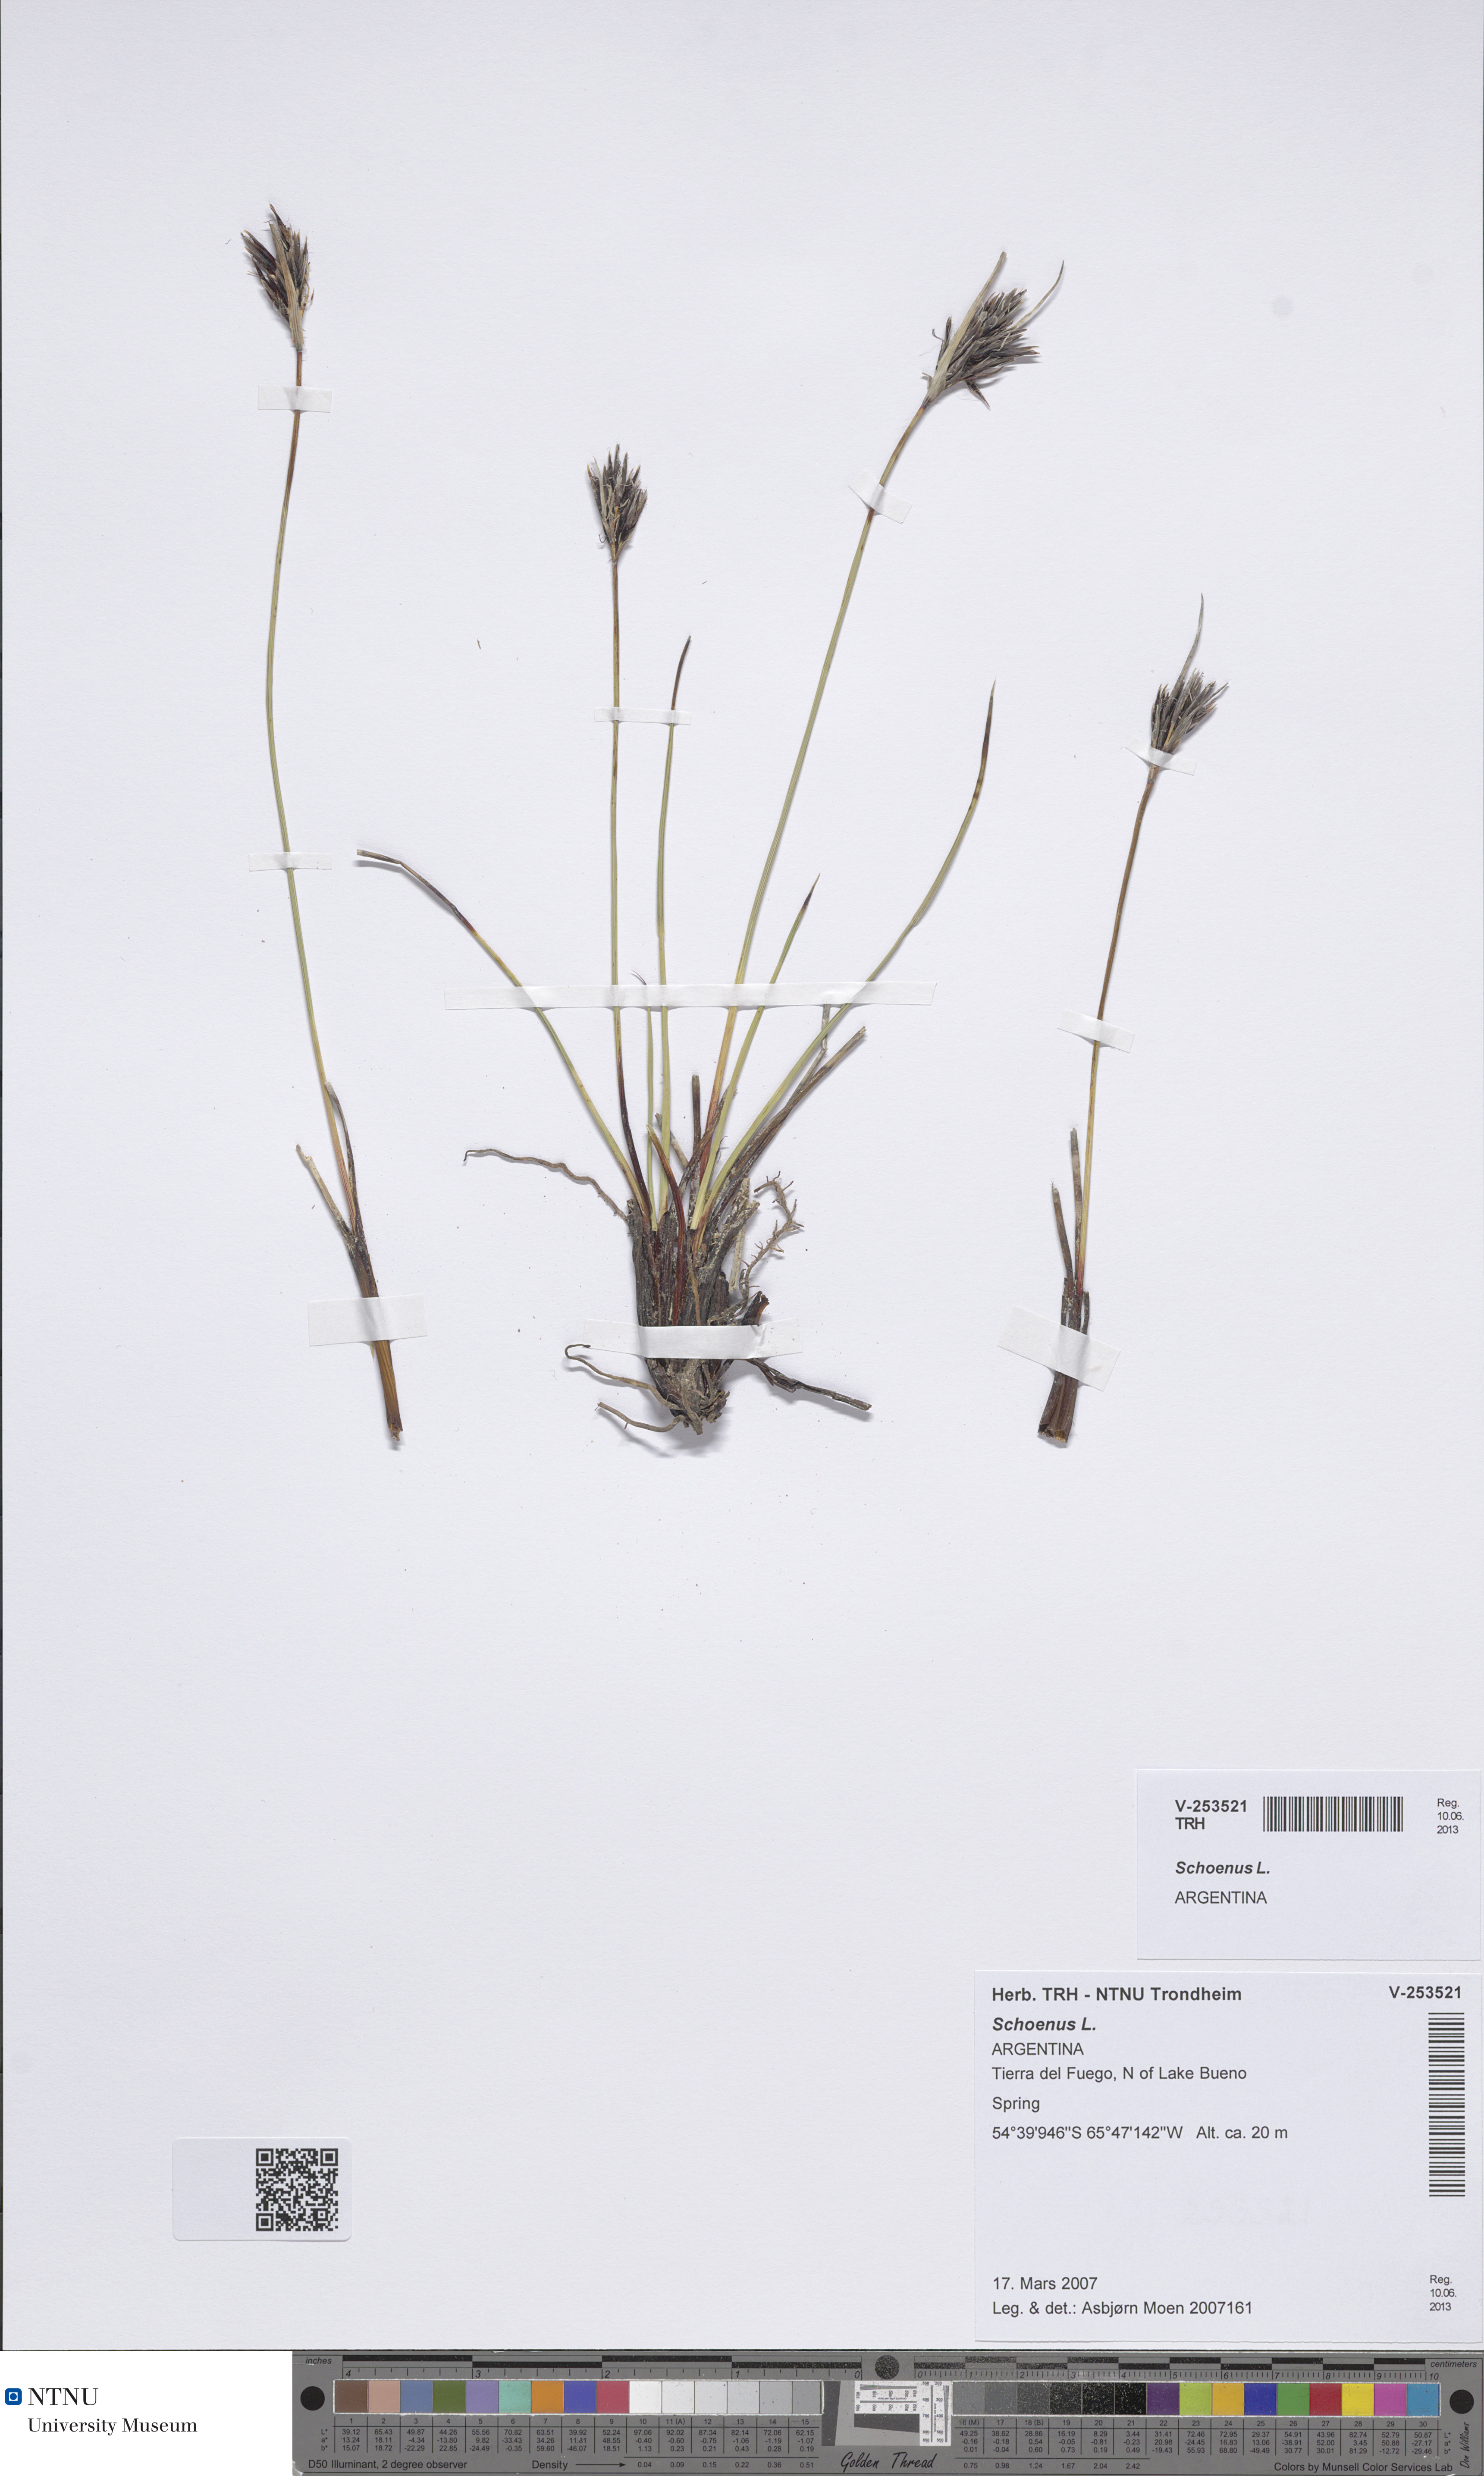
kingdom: Plantae
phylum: Tracheophyta
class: Liliopsida
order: Poales
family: Cyperaceae
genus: Schoenus
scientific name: Schoenus
